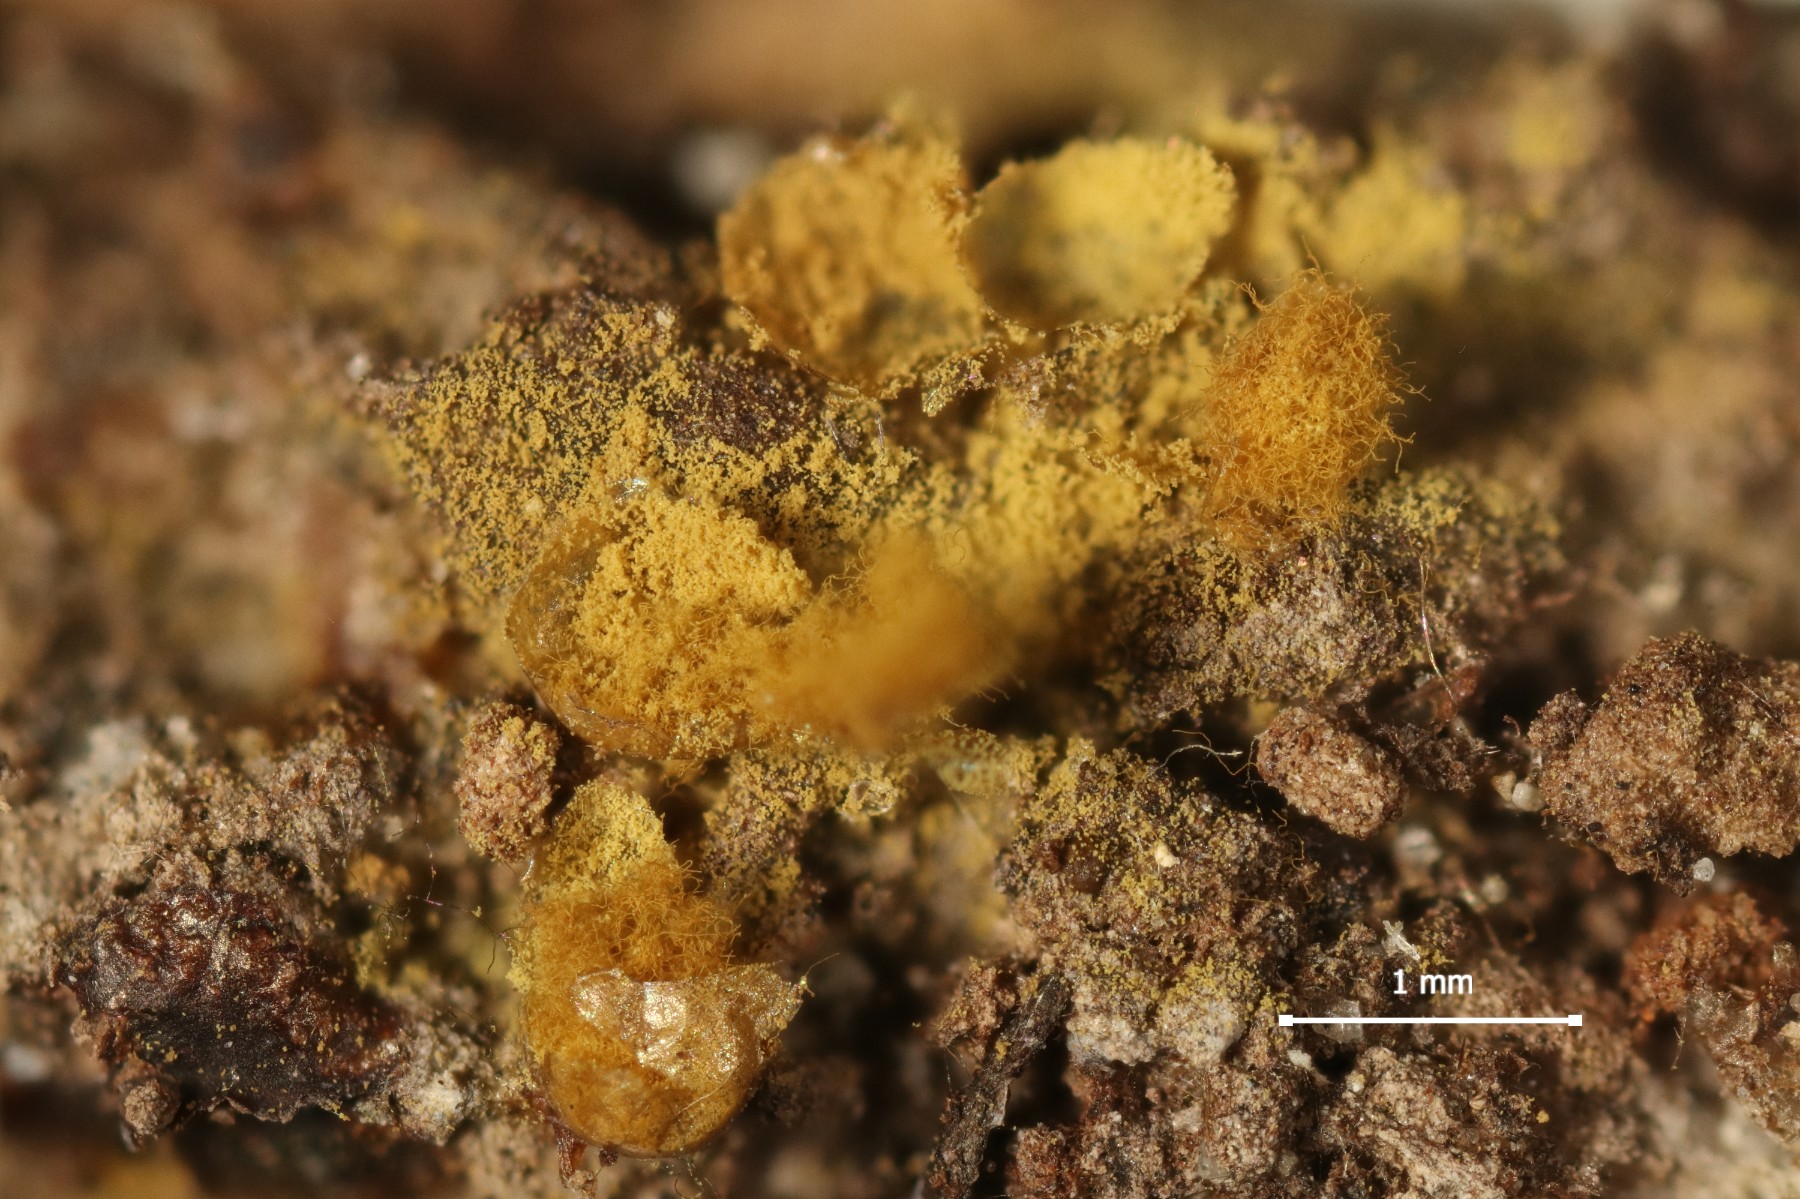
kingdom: Protozoa
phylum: Mycetozoa
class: Myxomycetes
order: Trichiales
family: Trichiaceae
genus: Trichia
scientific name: Trichia varia
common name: foranderlig hårbold
